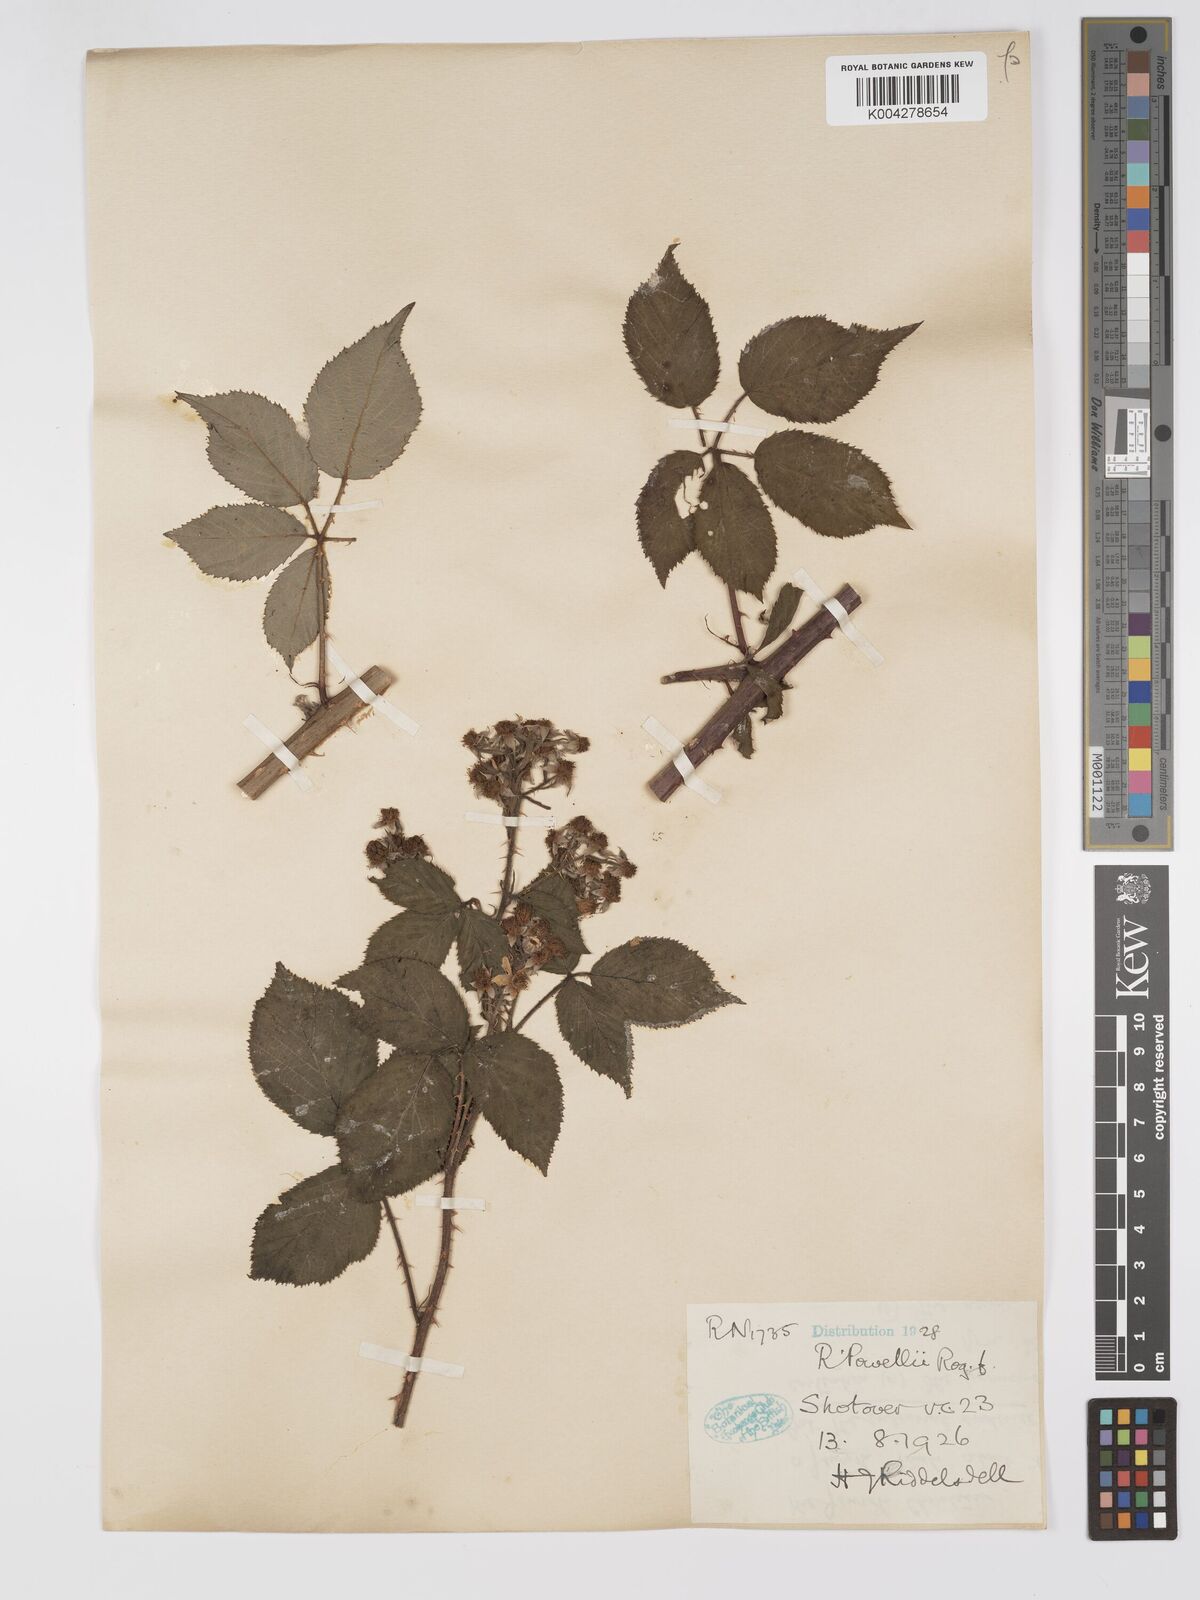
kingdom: Plantae
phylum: Tracheophyta
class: Magnoliopsida
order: Rosales
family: Rosaceae
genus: Rubus
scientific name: Rubus radula
